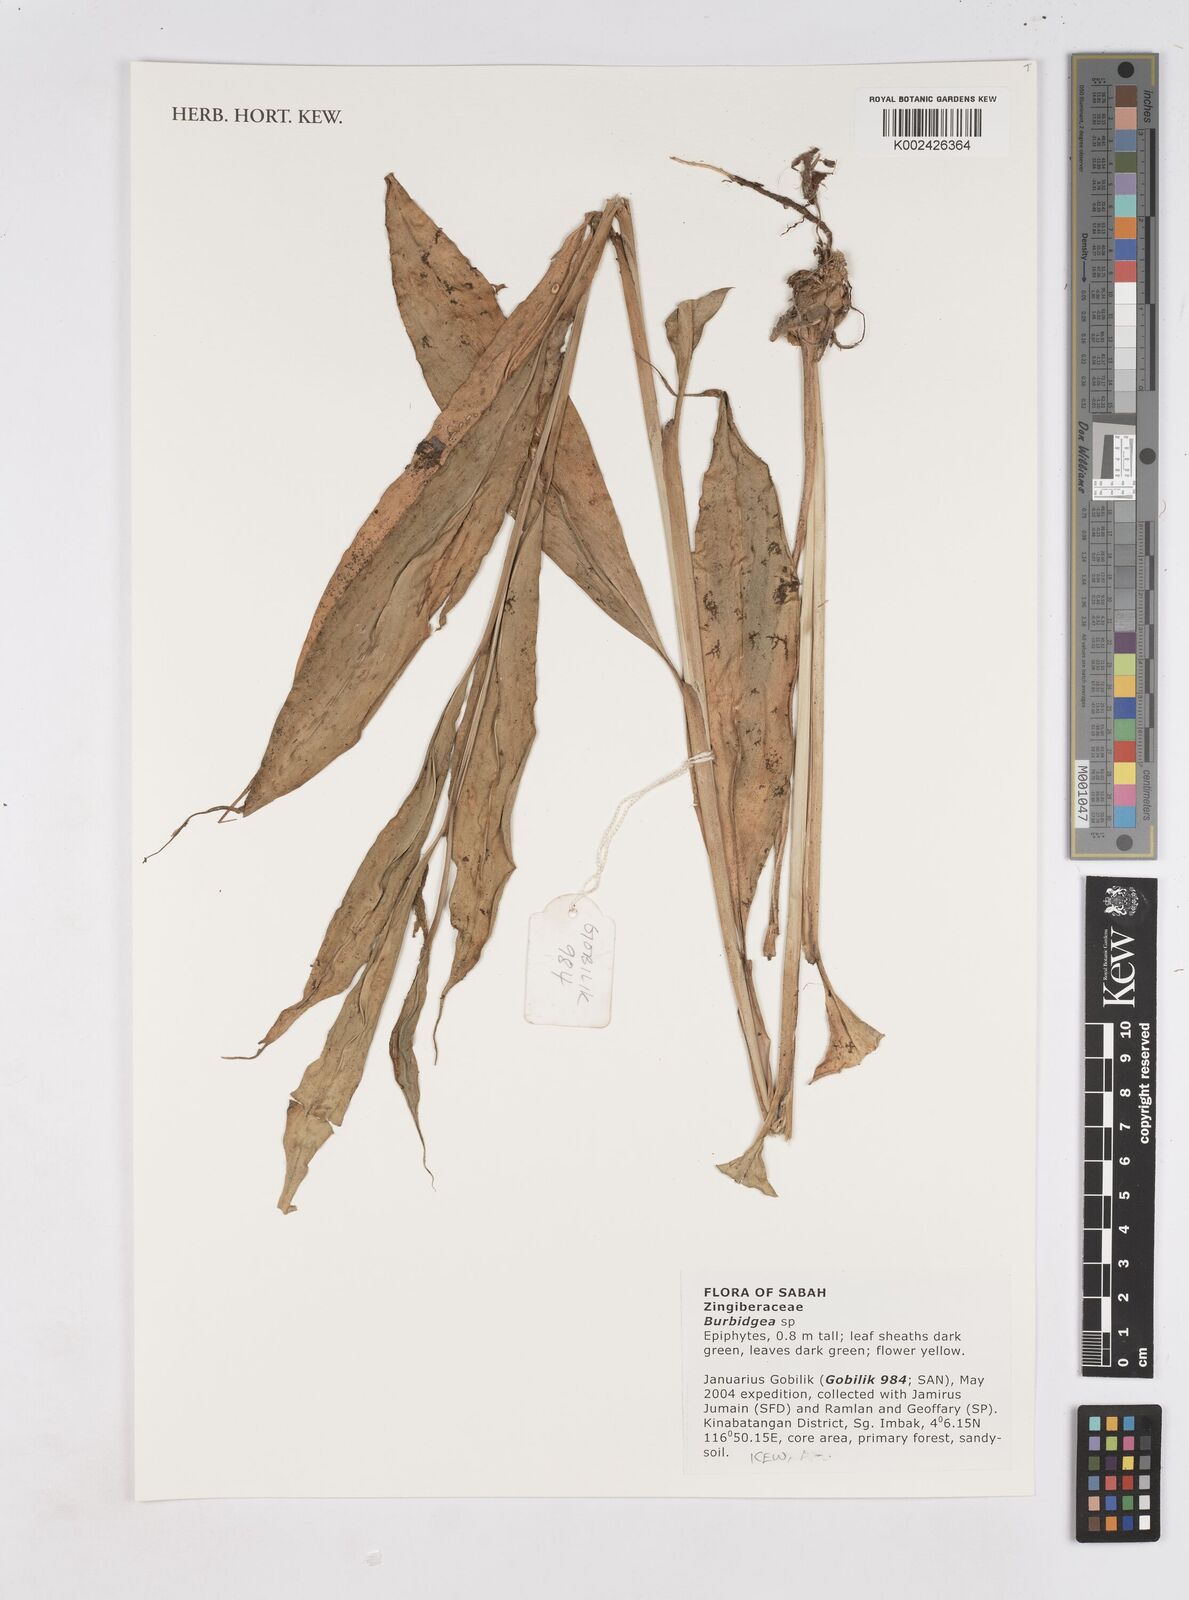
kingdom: Plantae
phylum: Tracheophyta
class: Liliopsida
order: Zingiberales
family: Zingiberaceae
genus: Burbidgea
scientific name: Burbidgea
